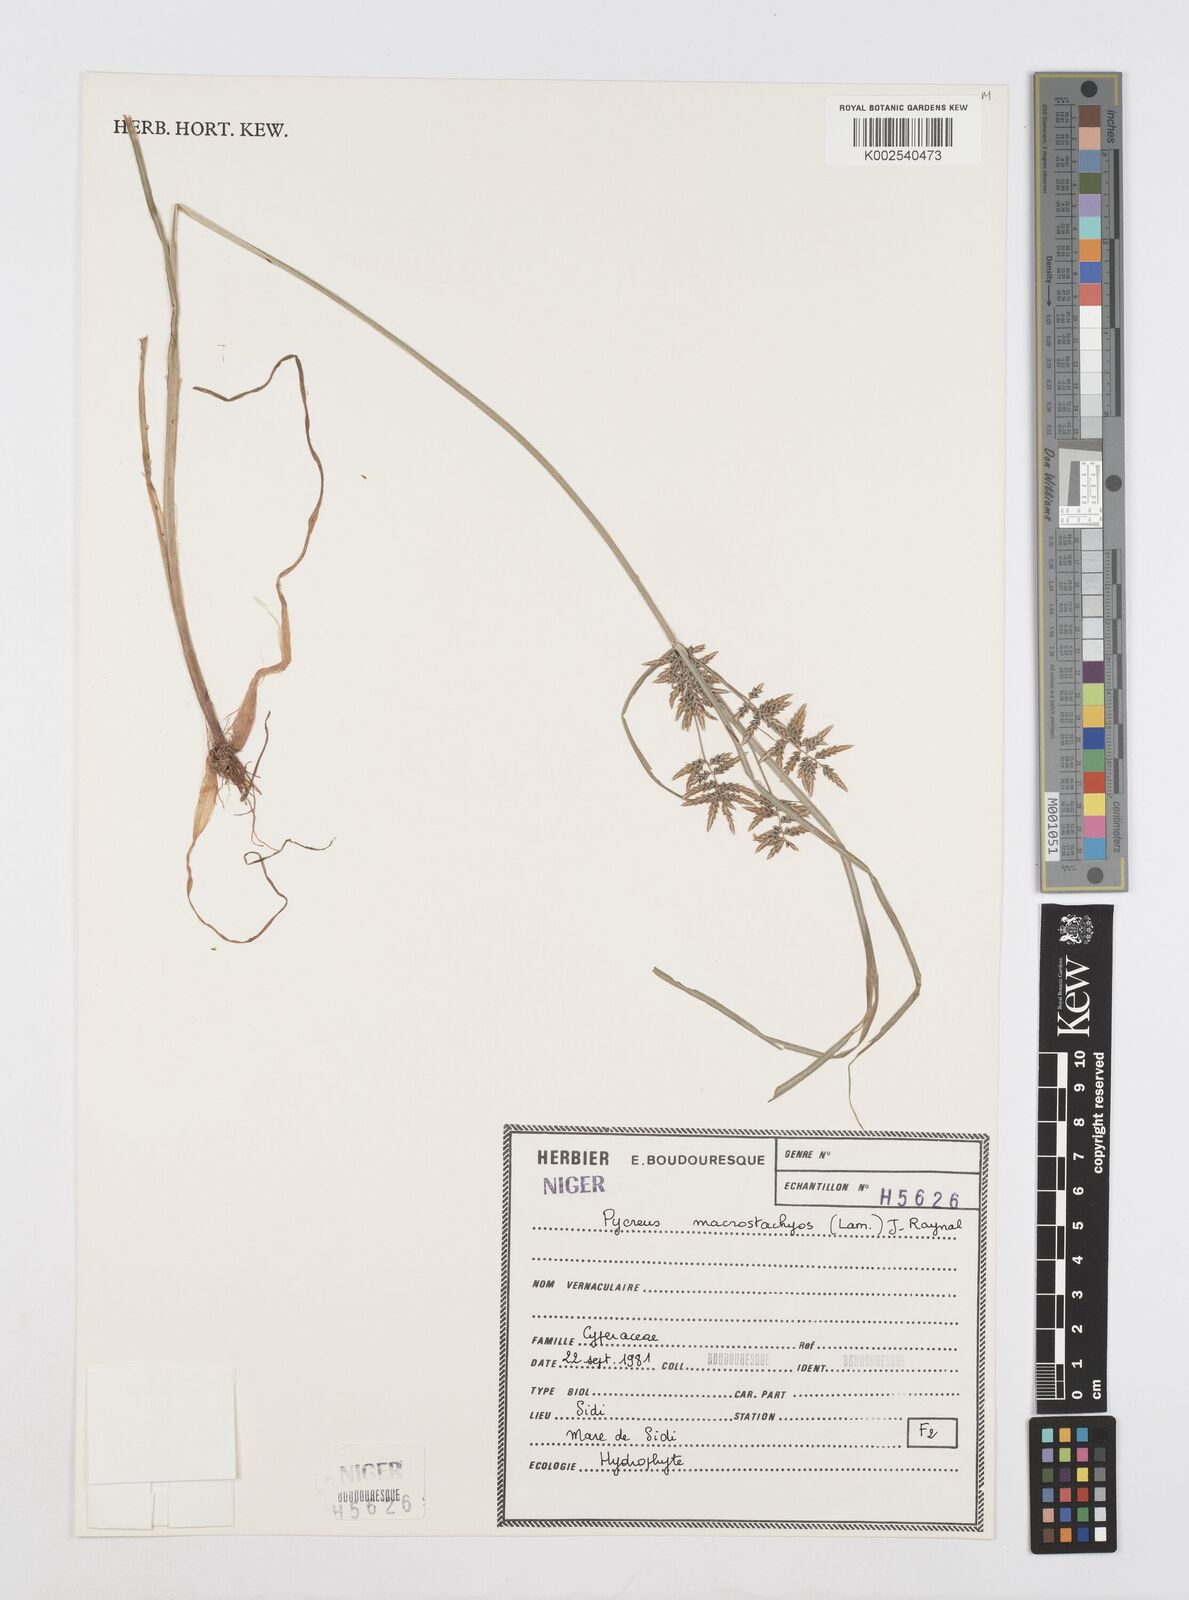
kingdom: Plantae
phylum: Tracheophyta
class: Liliopsida
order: Poales
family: Cyperaceae
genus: Cyperus
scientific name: Cyperus macrostachyos
